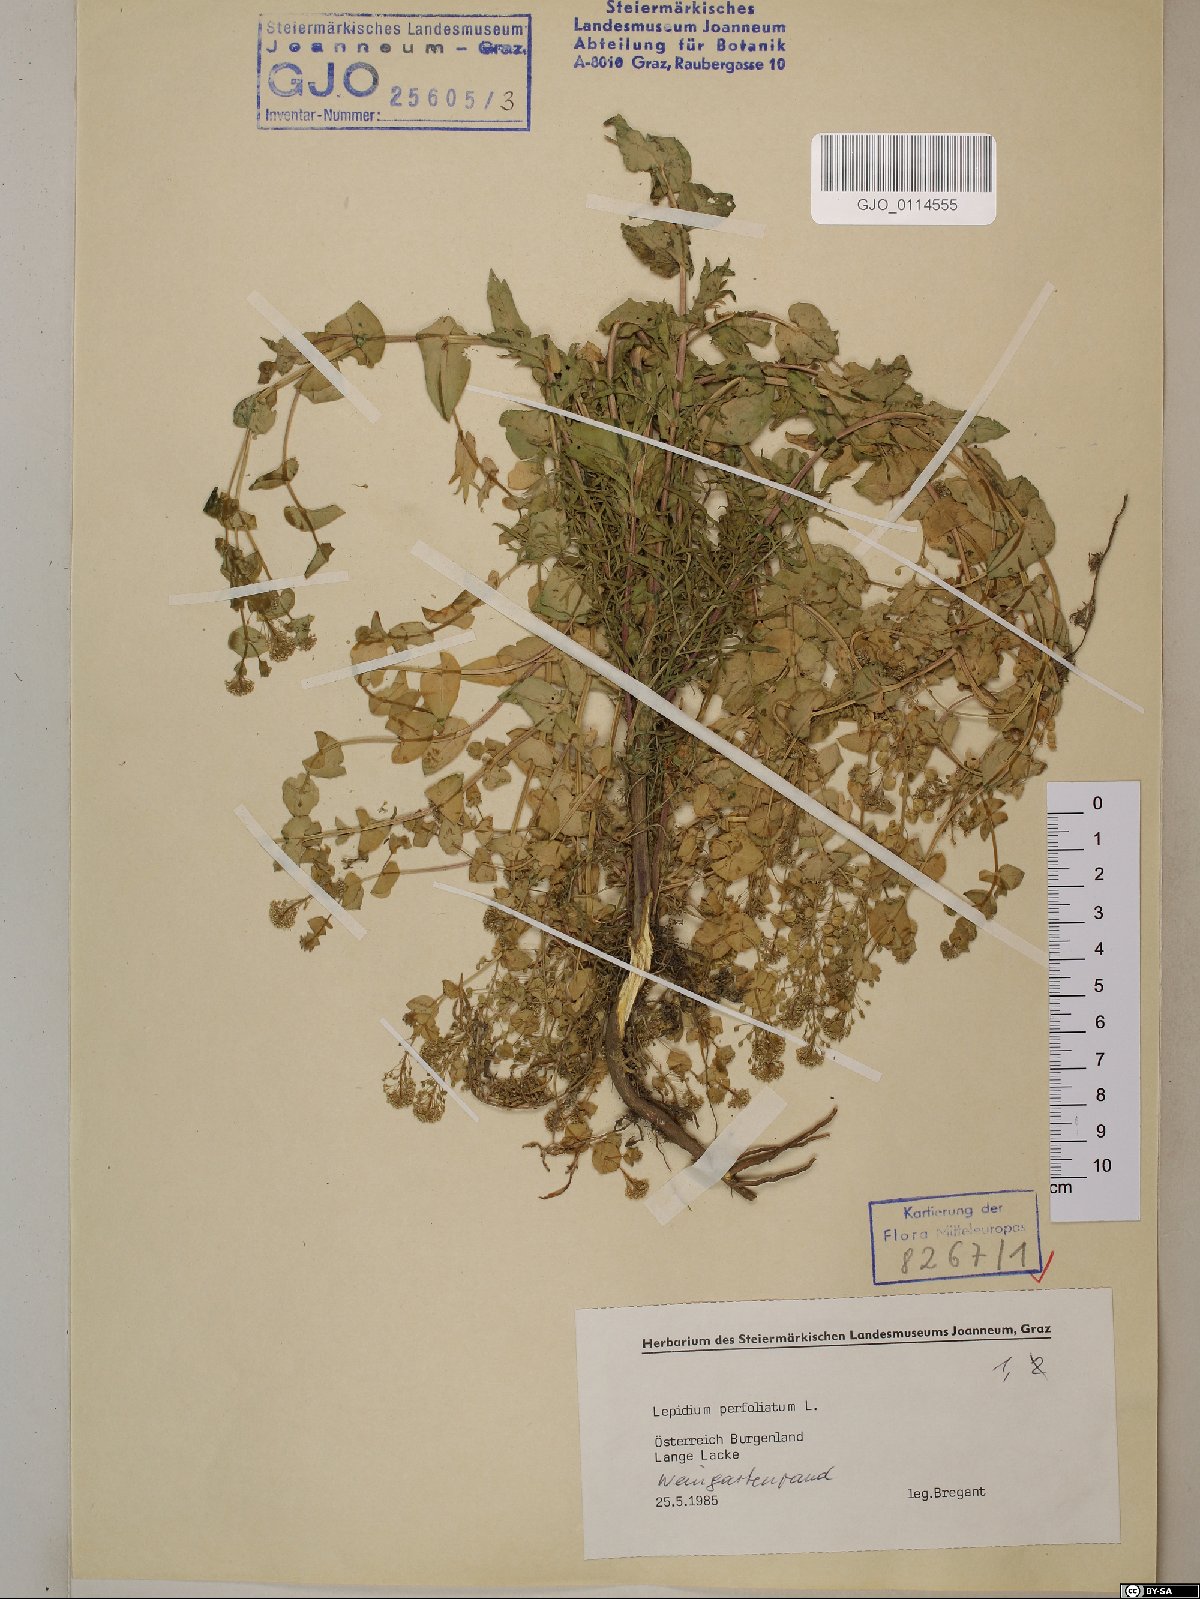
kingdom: Plantae
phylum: Tracheophyta
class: Magnoliopsida
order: Brassicales
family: Brassicaceae
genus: Lepidium
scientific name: Lepidium perfoliatum
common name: Perfoliate pepperwort
